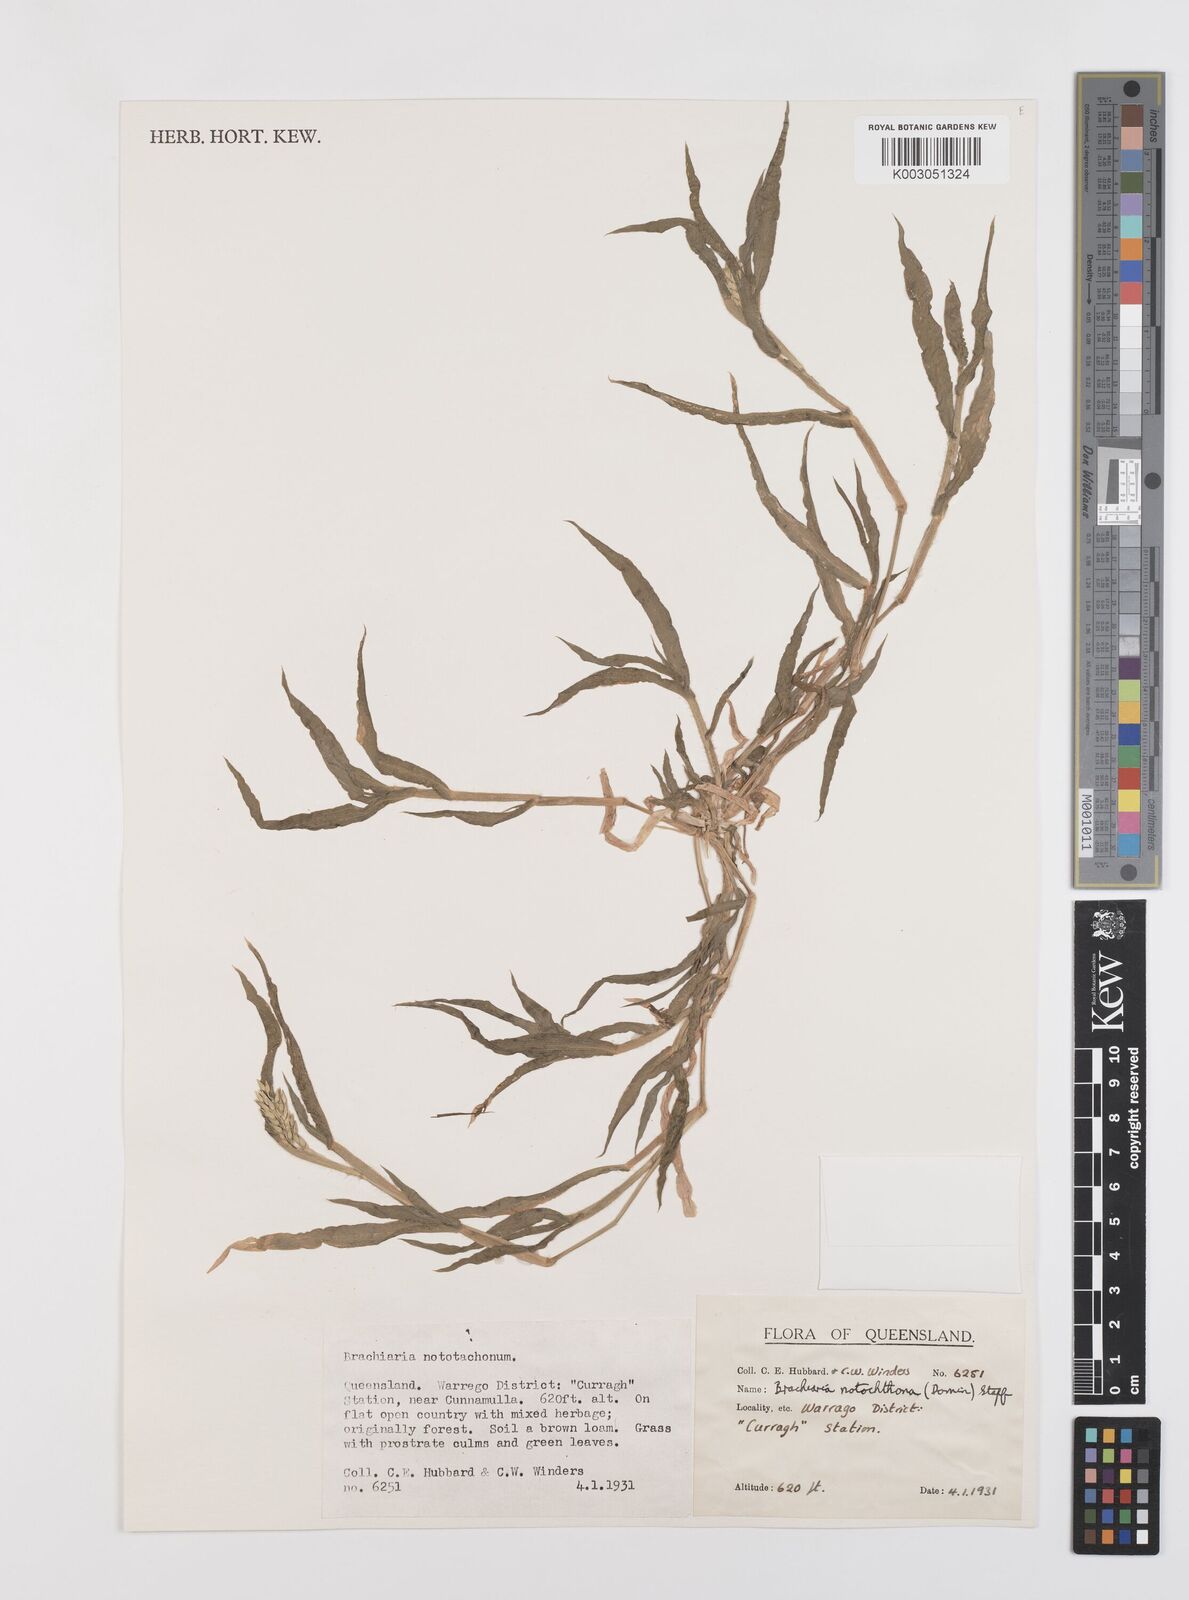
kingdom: Plantae
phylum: Tracheophyta
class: Liliopsida
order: Poales
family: Poaceae
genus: Urochloa
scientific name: Urochloa notochthona
